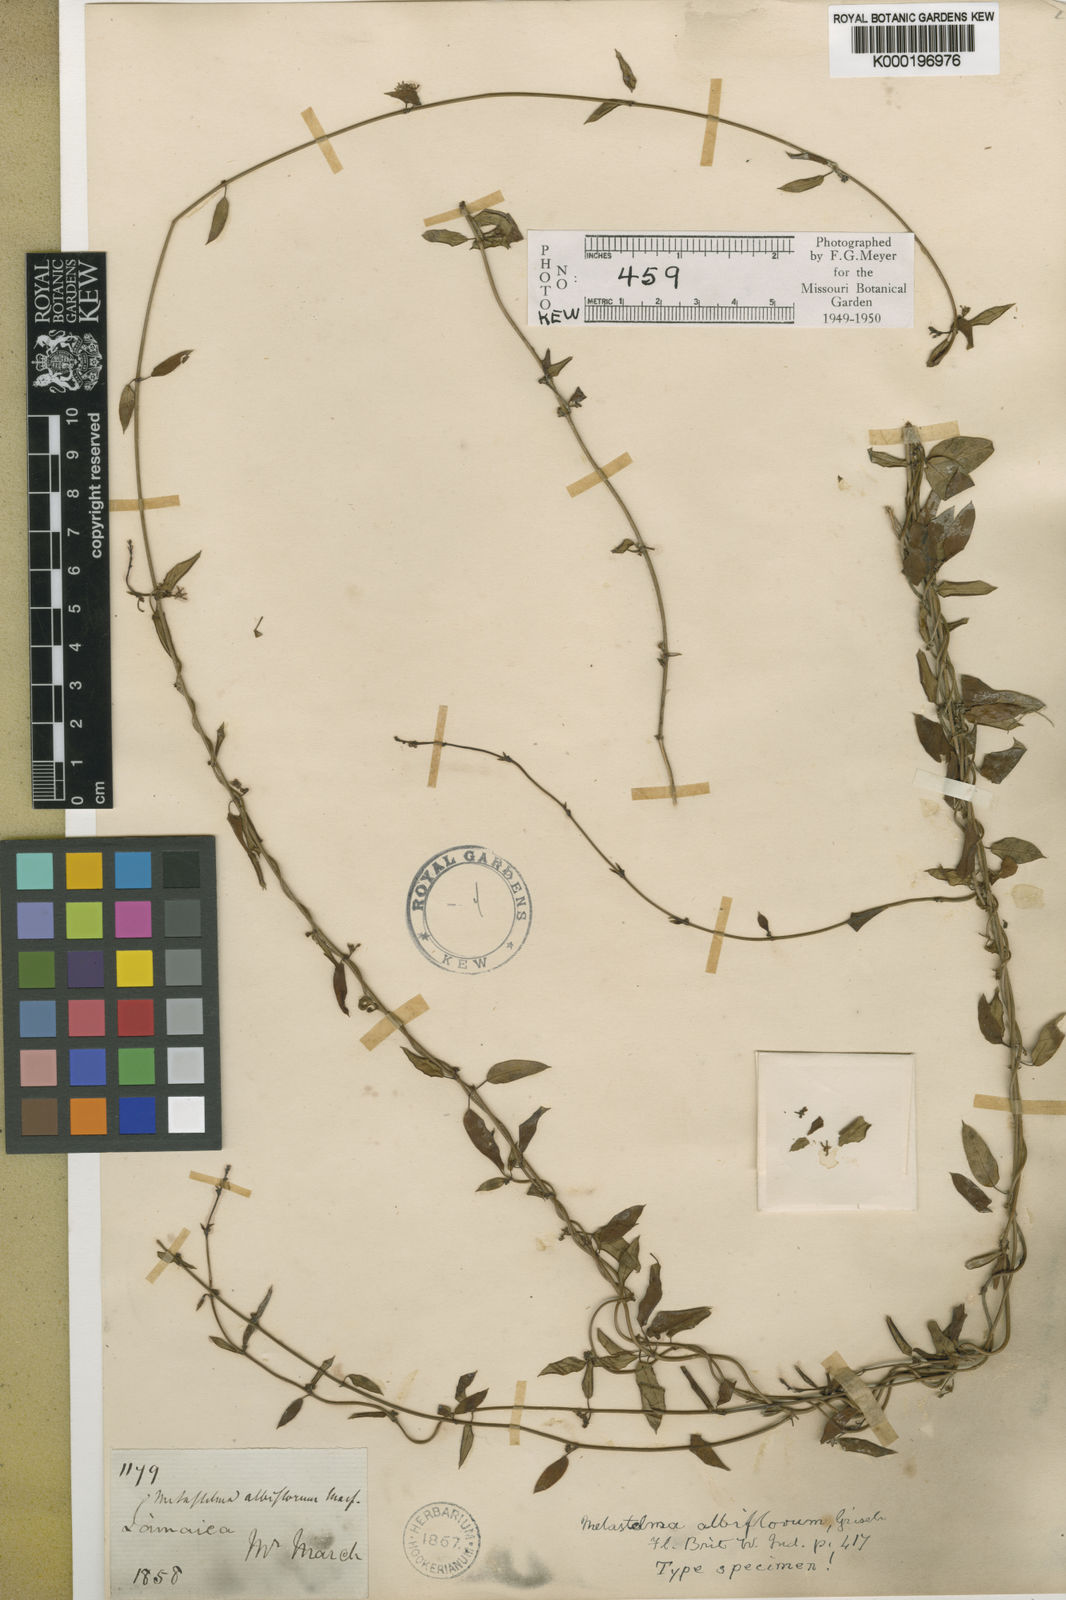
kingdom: Plantae
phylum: Tracheophyta
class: Magnoliopsida
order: Gentianales
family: Apocynaceae
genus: Metastelma
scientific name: Metastelma albiflorum
